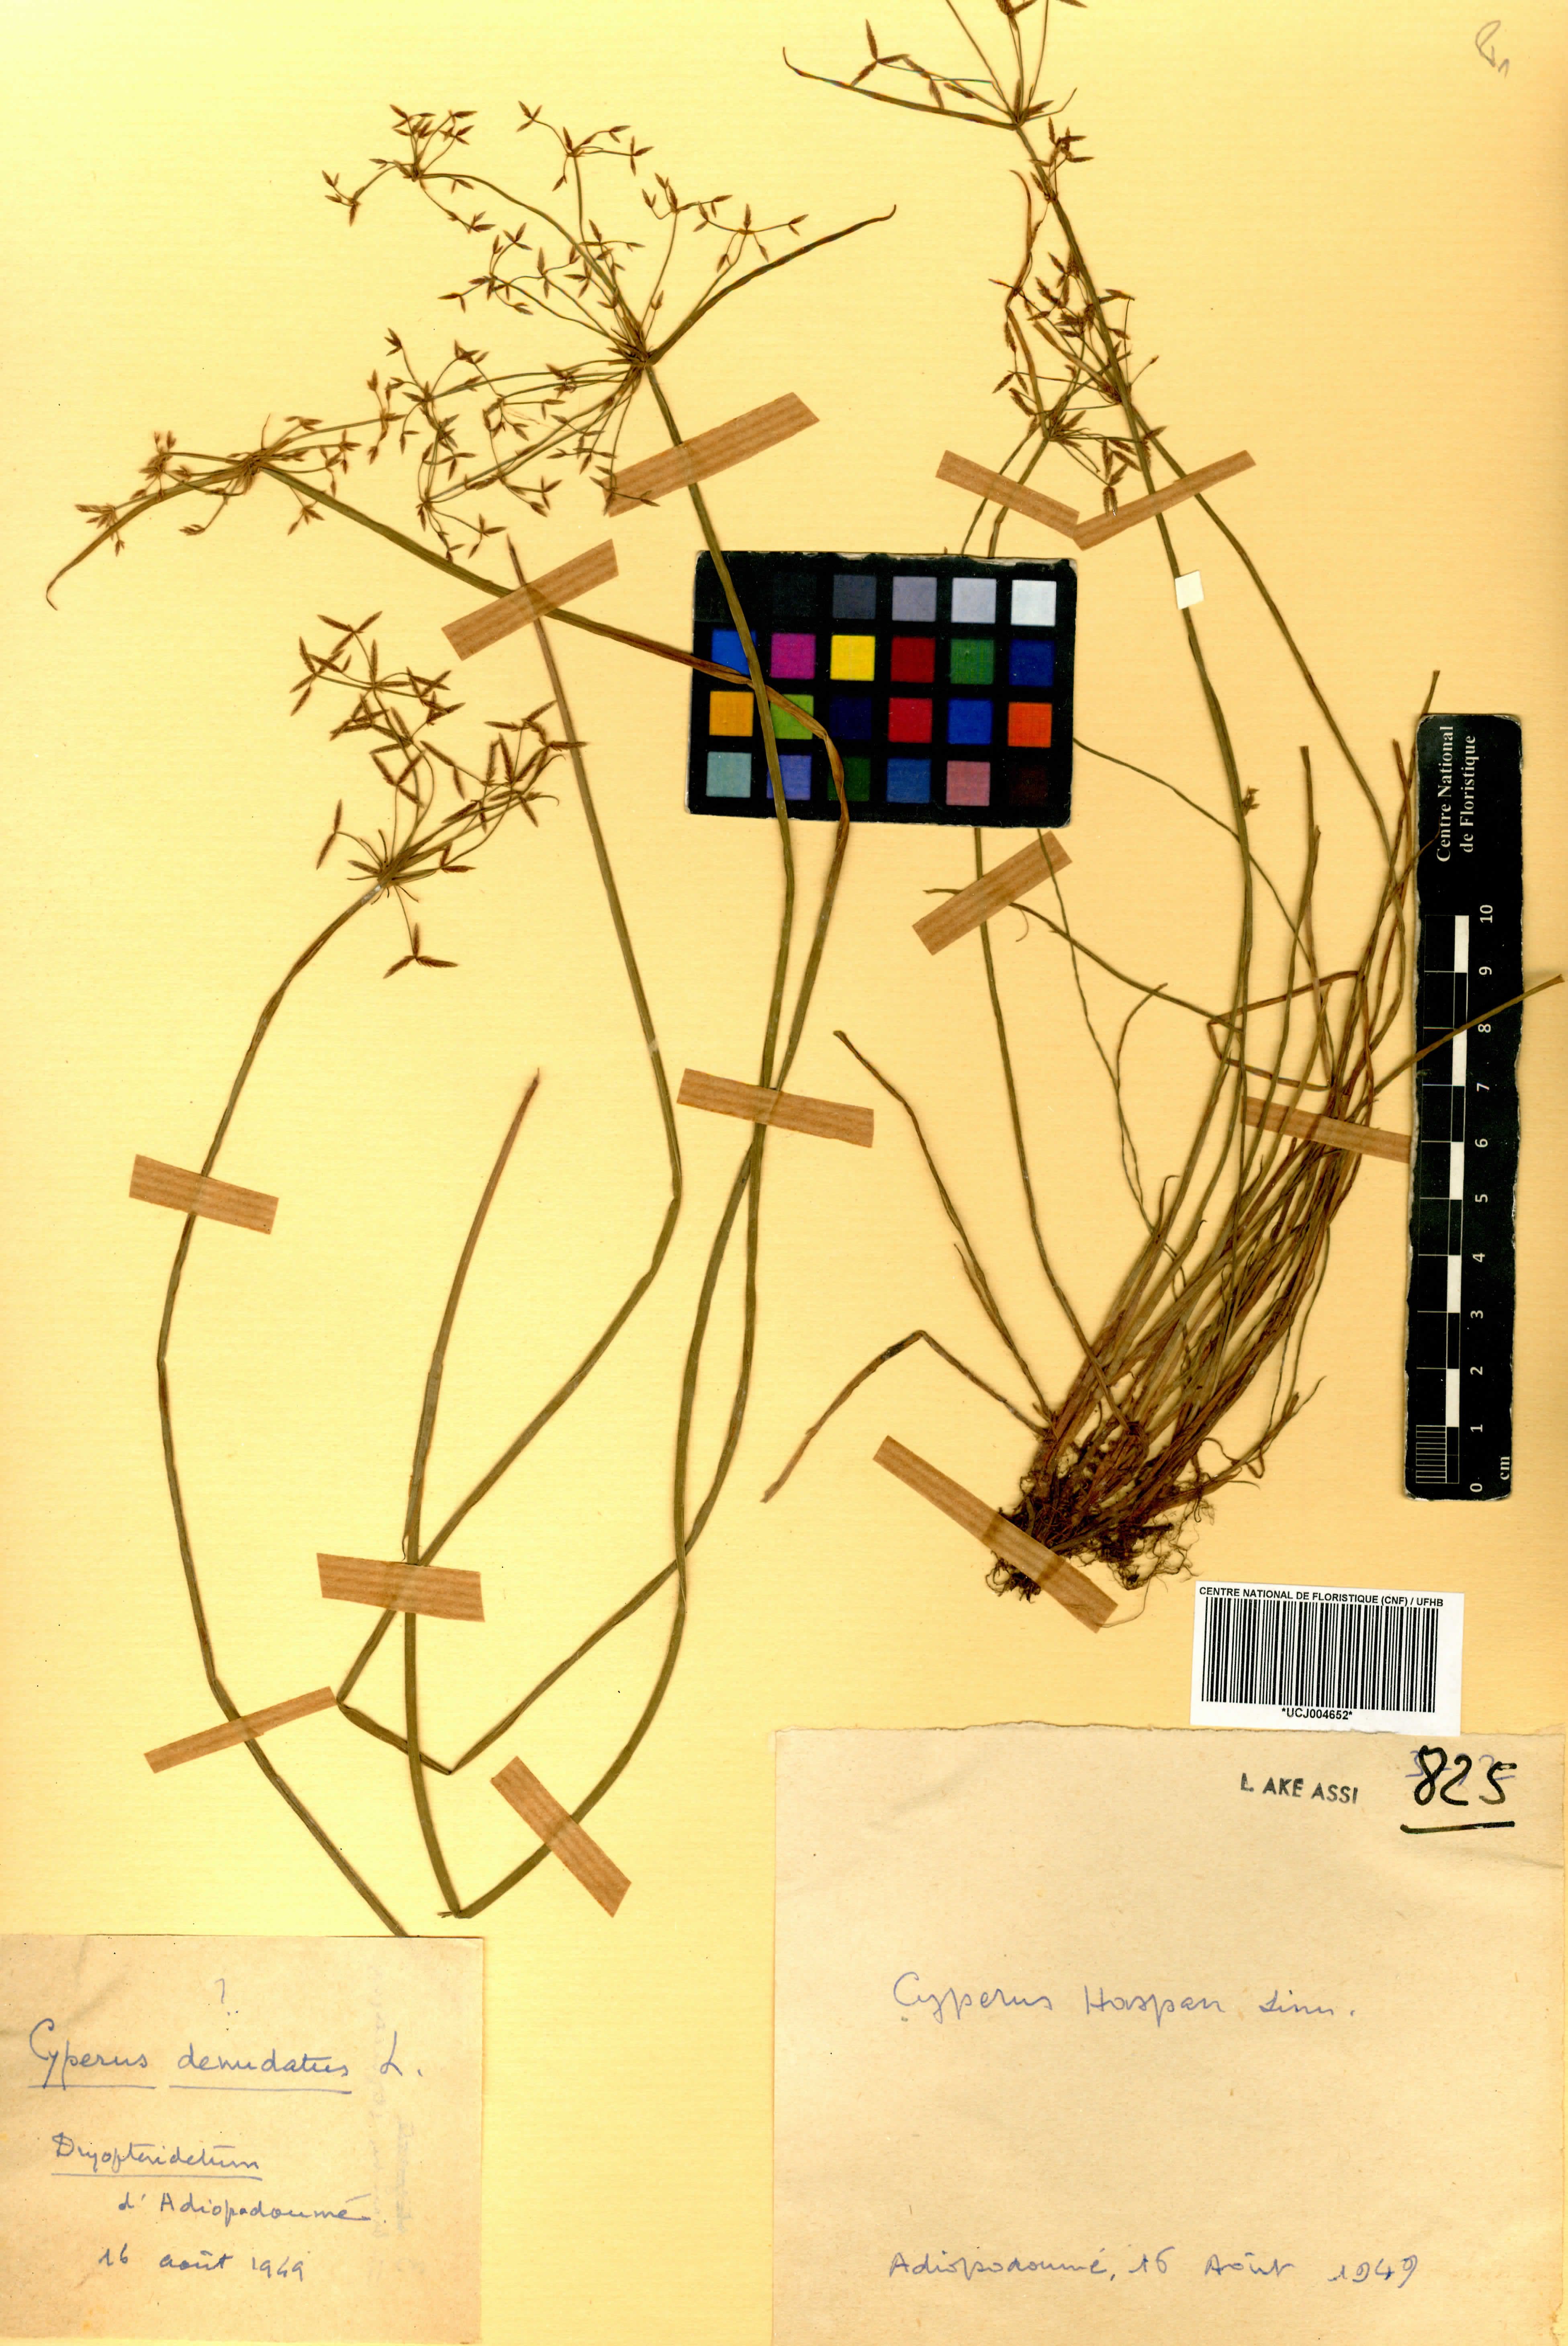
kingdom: Plantae
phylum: Tracheophyta
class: Liliopsida
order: Poales
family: Cyperaceae
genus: Cyperus
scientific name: Cyperus haspan
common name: Haspan flatsedge
